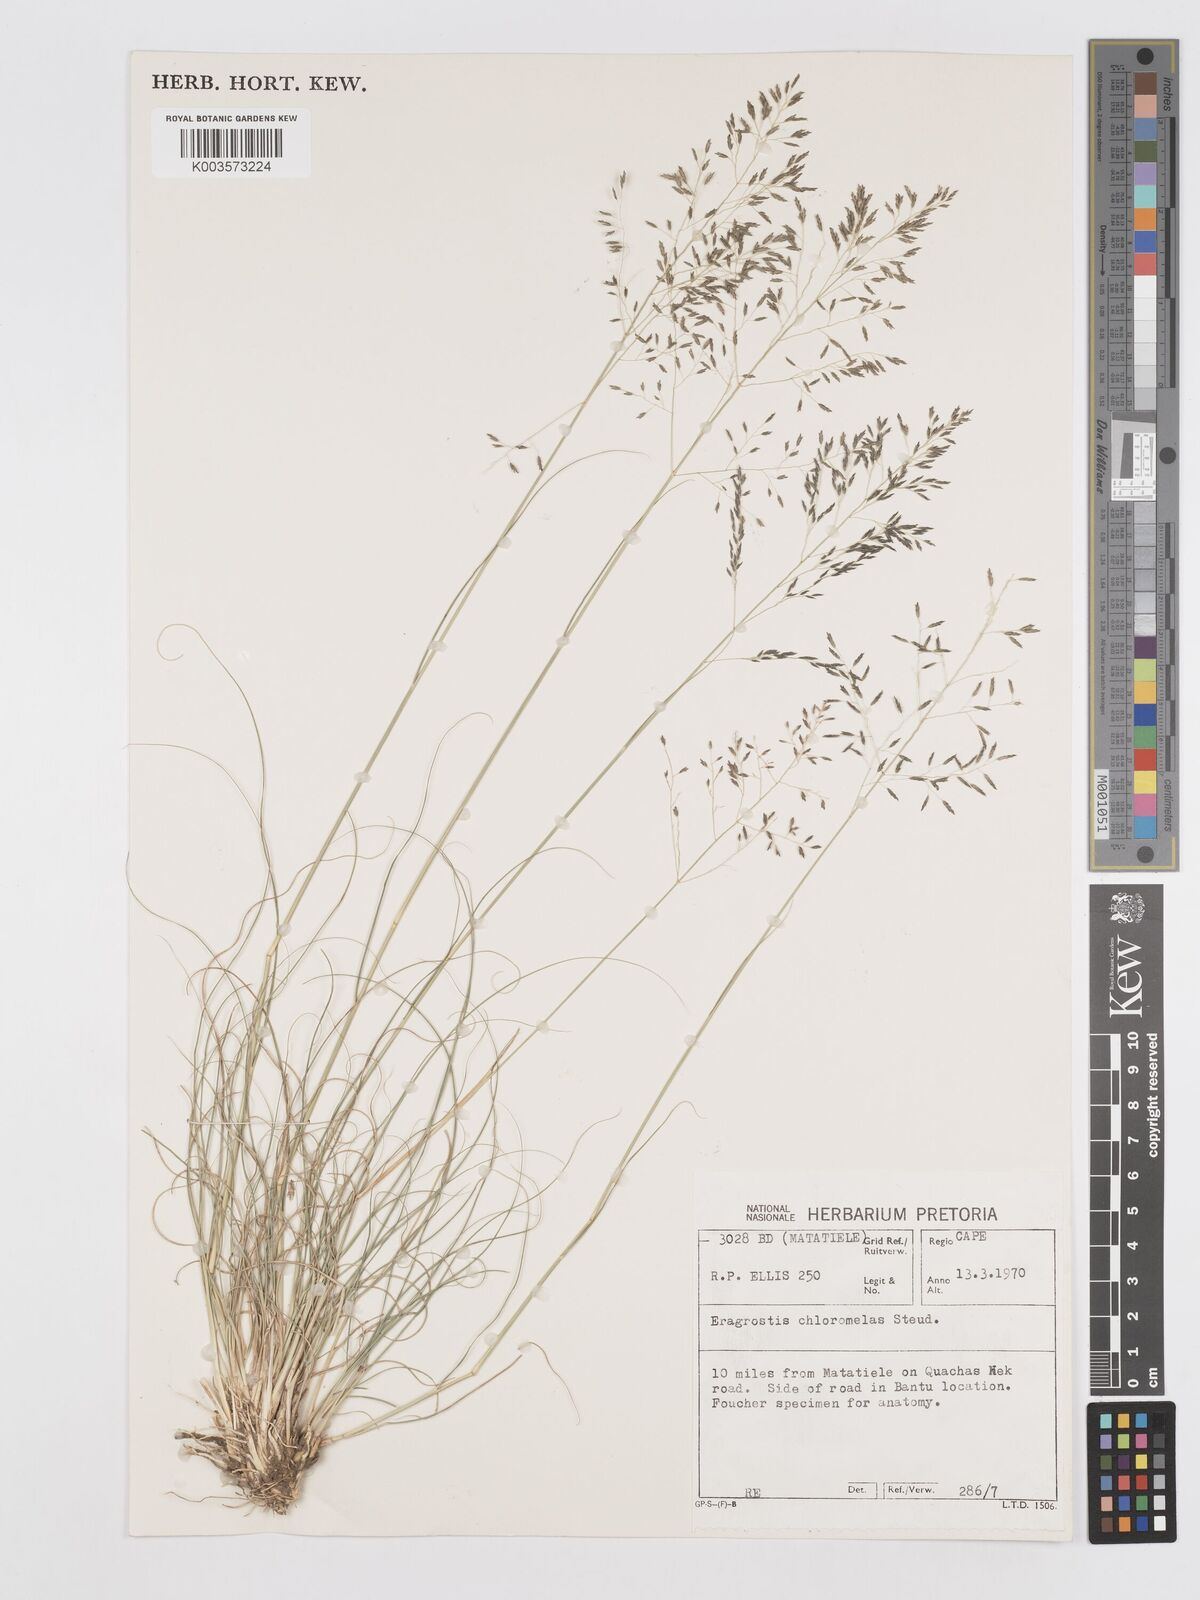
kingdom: Plantae
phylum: Tracheophyta
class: Liliopsida
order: Poales
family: Poaceae
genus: Eragrostis
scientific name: Eragrostis curvula
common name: African love-grass
